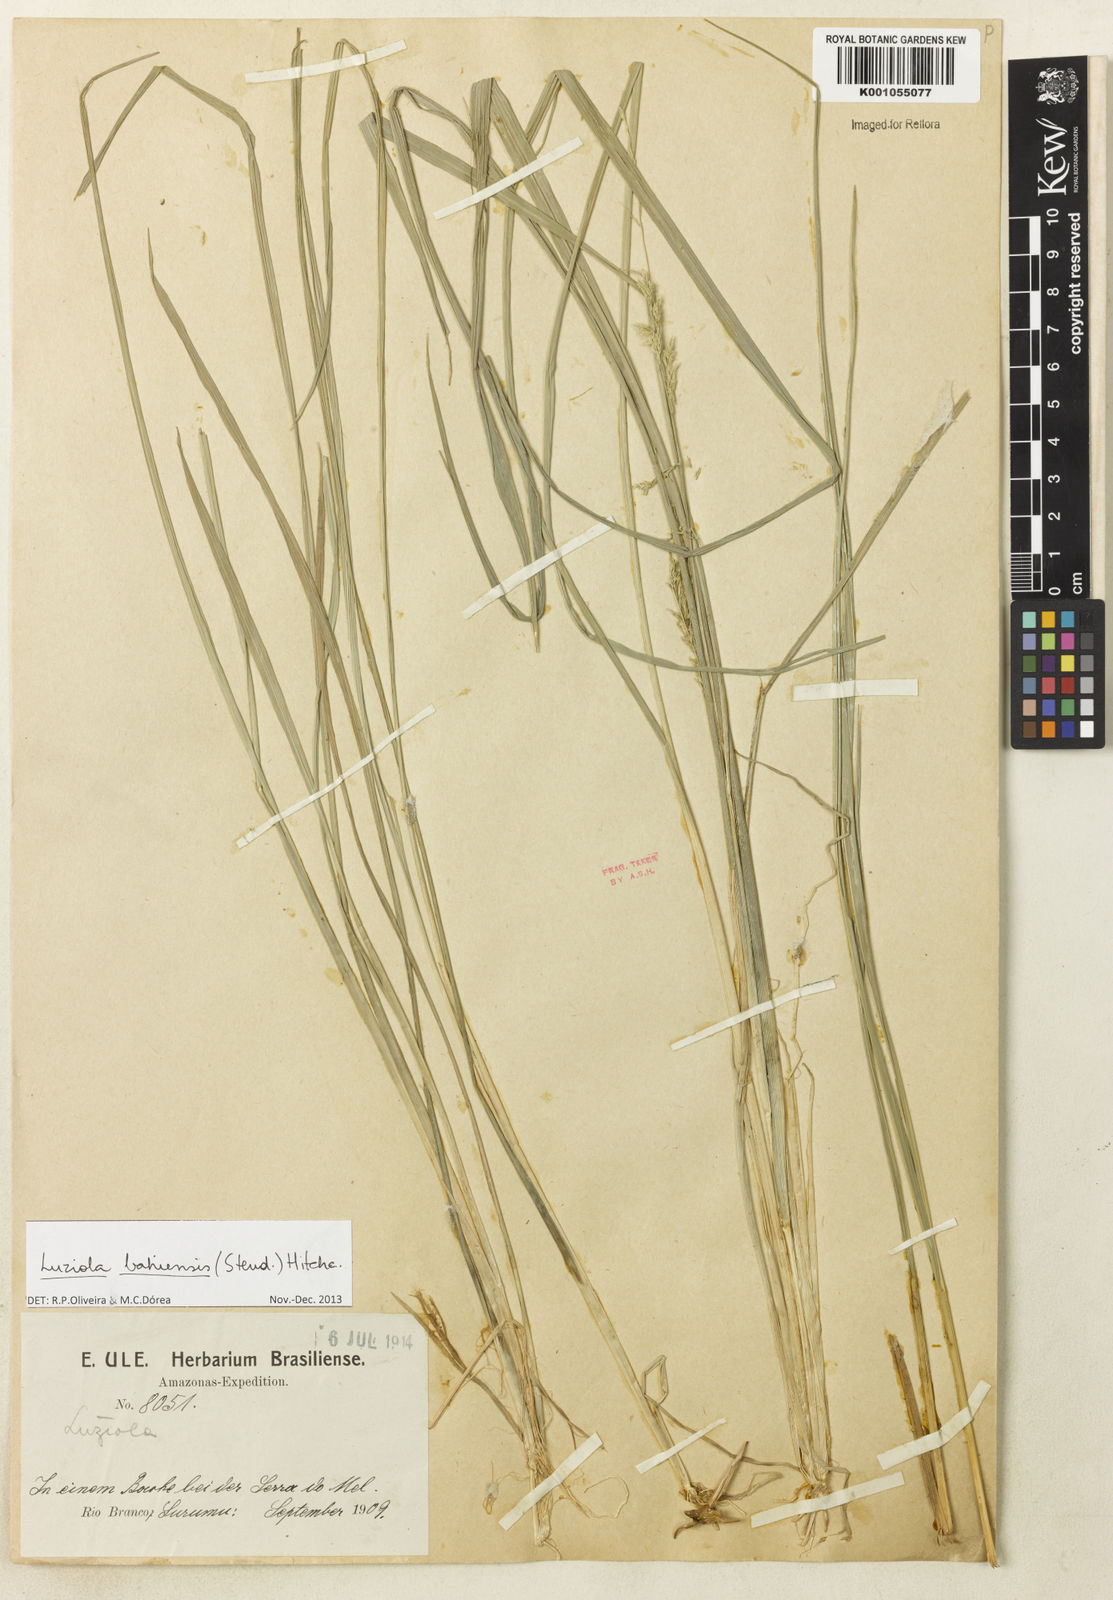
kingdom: Plantae
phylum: Tracheophyta
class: Liliopsida
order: Poales
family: Poaceae
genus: Luziola
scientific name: Luziola bahiensis
